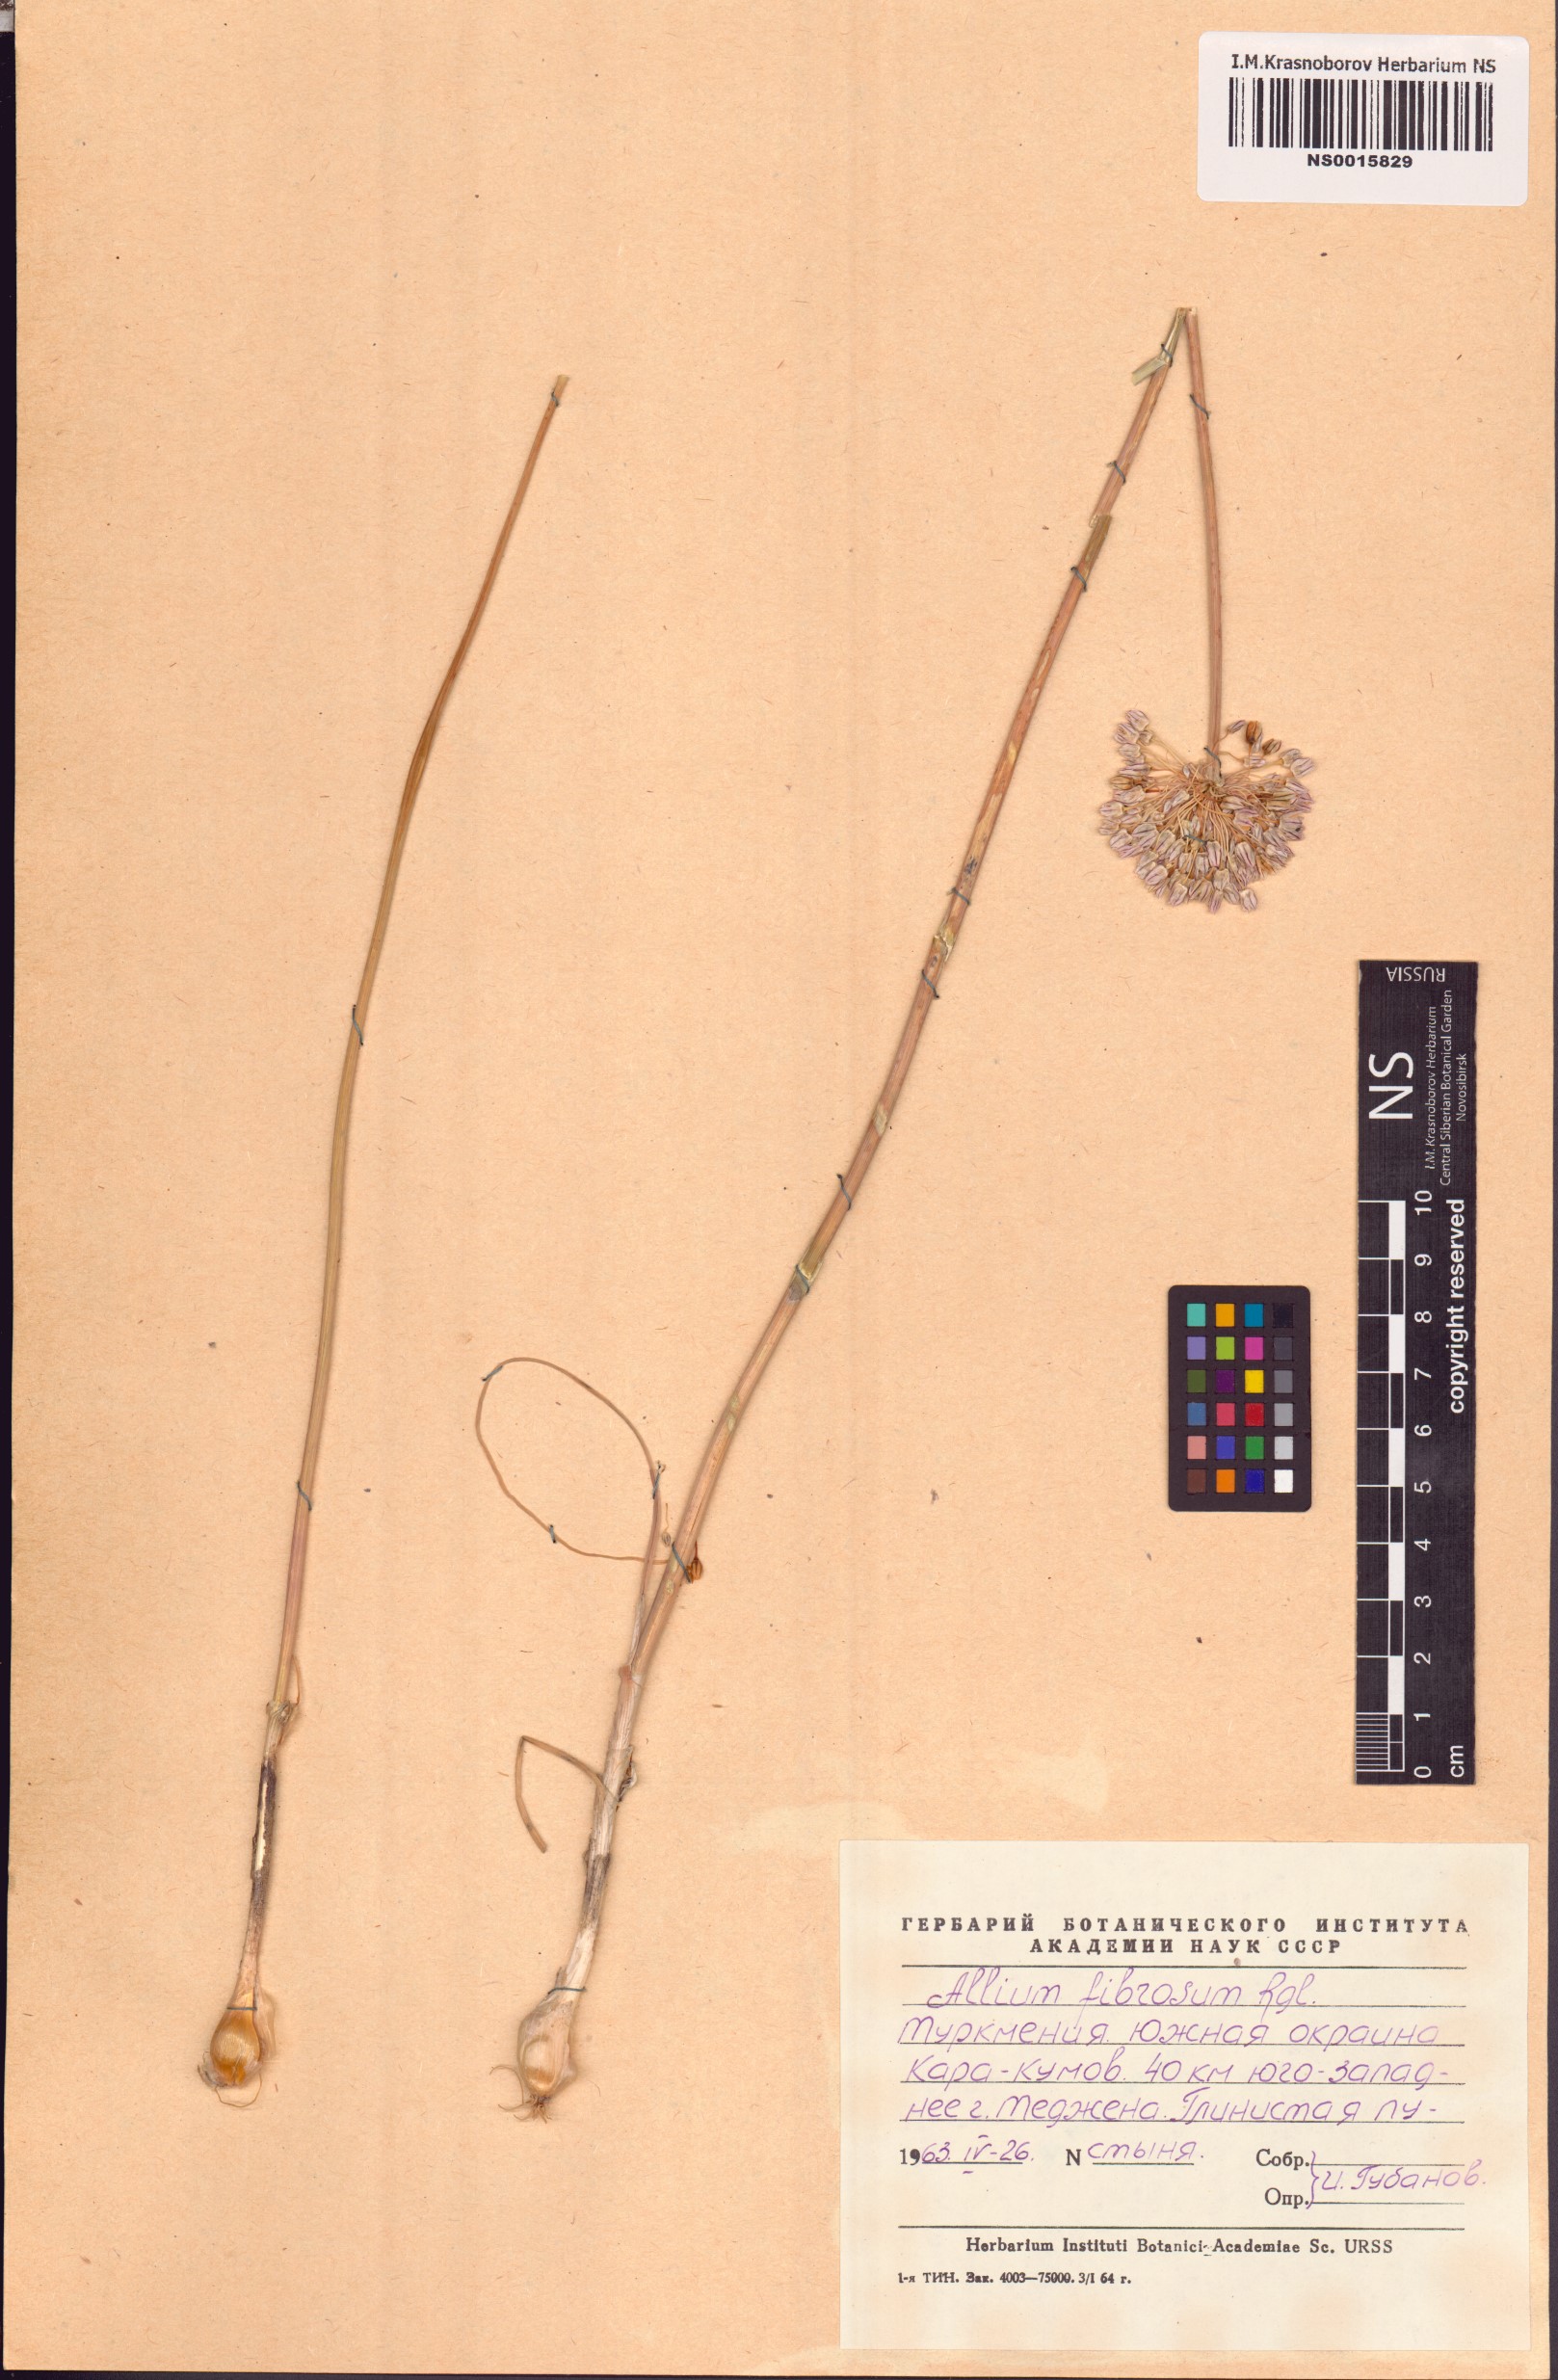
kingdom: Plantae
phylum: Tracheophyta
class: Liliopsida
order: Asparagales
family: Amaryllidaceae
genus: Allium
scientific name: Allium leucosphaerum
